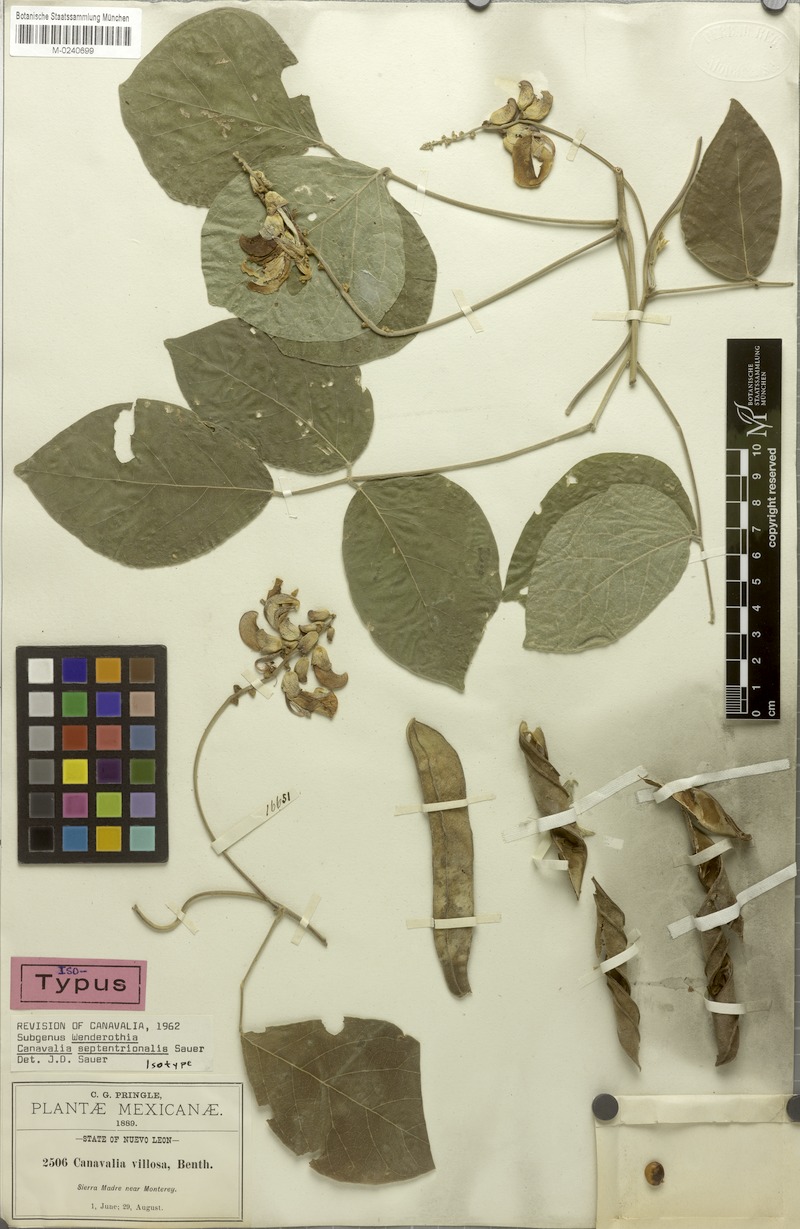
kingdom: Plantae
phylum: Tracheophyta
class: Magnoliopsida
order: Fabales
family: Fabaceae
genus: Canavalia
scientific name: Canavalia septentrionalis
